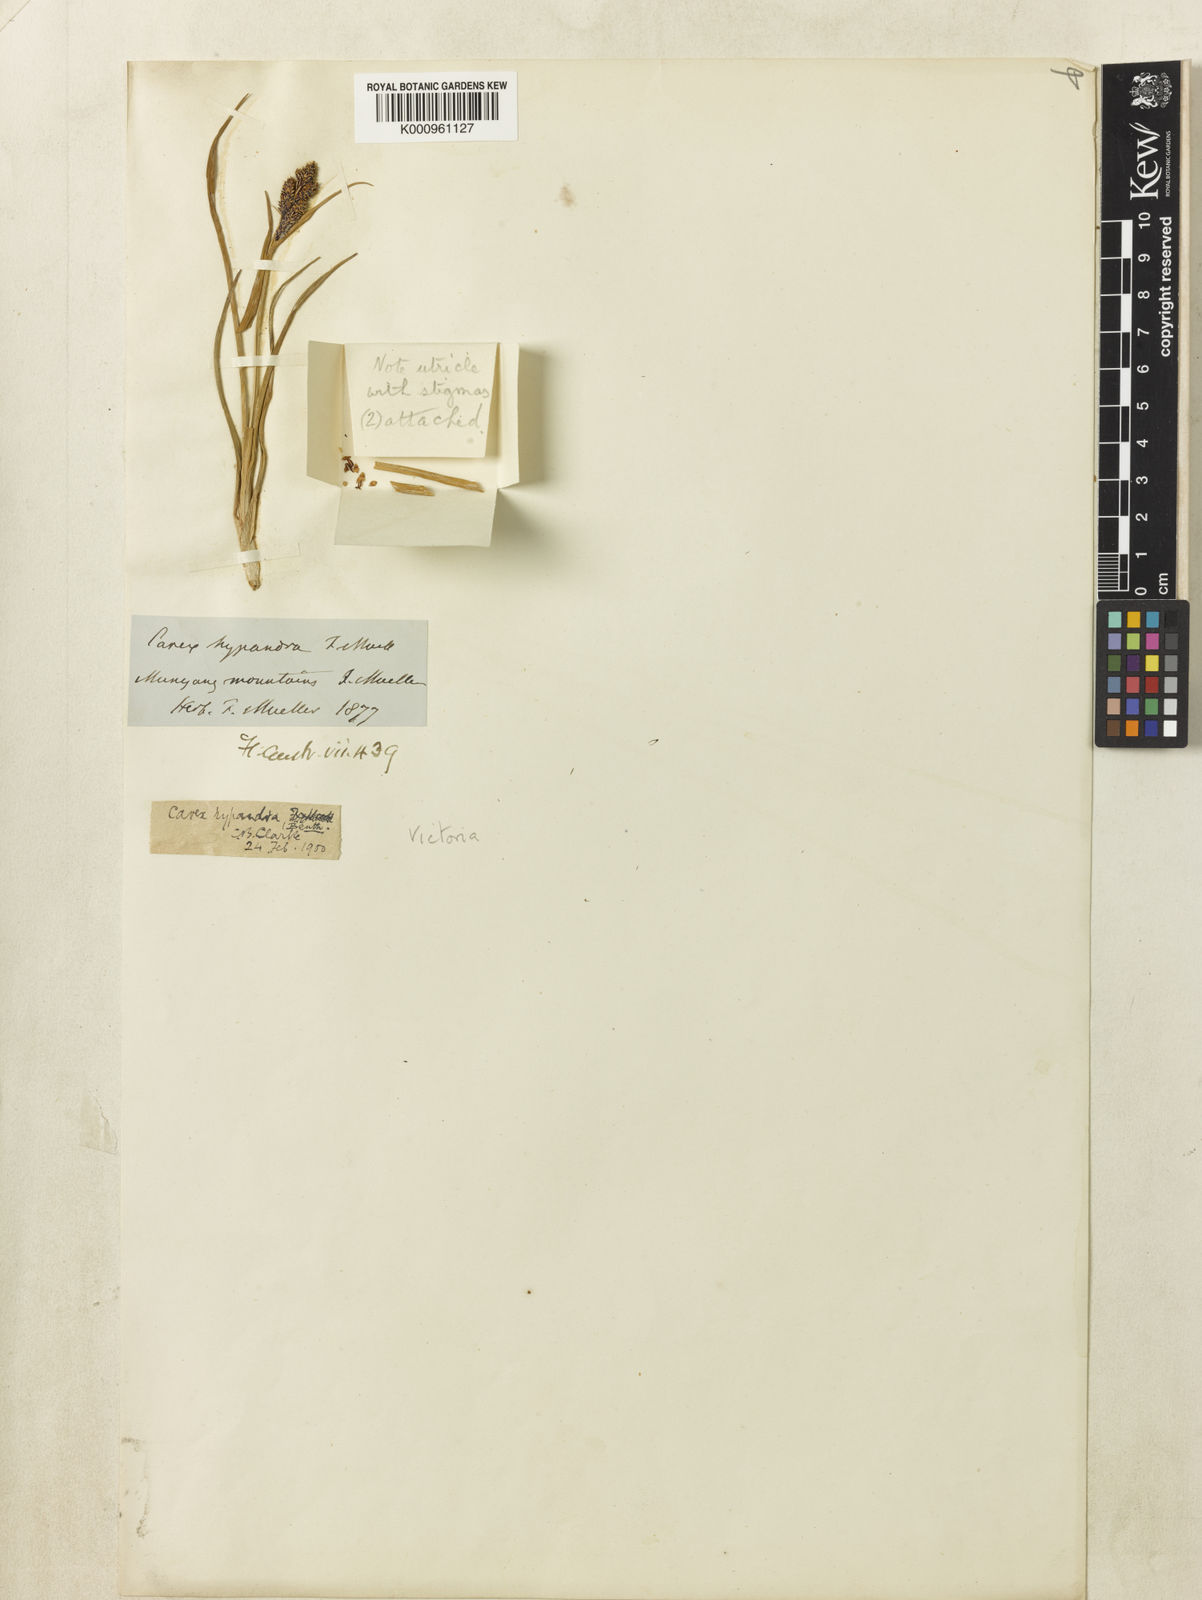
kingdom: Plantae
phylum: Tracheophyta
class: Liliopsida
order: Poales
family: Cyperaceae
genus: Carex
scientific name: Carex hypandra
